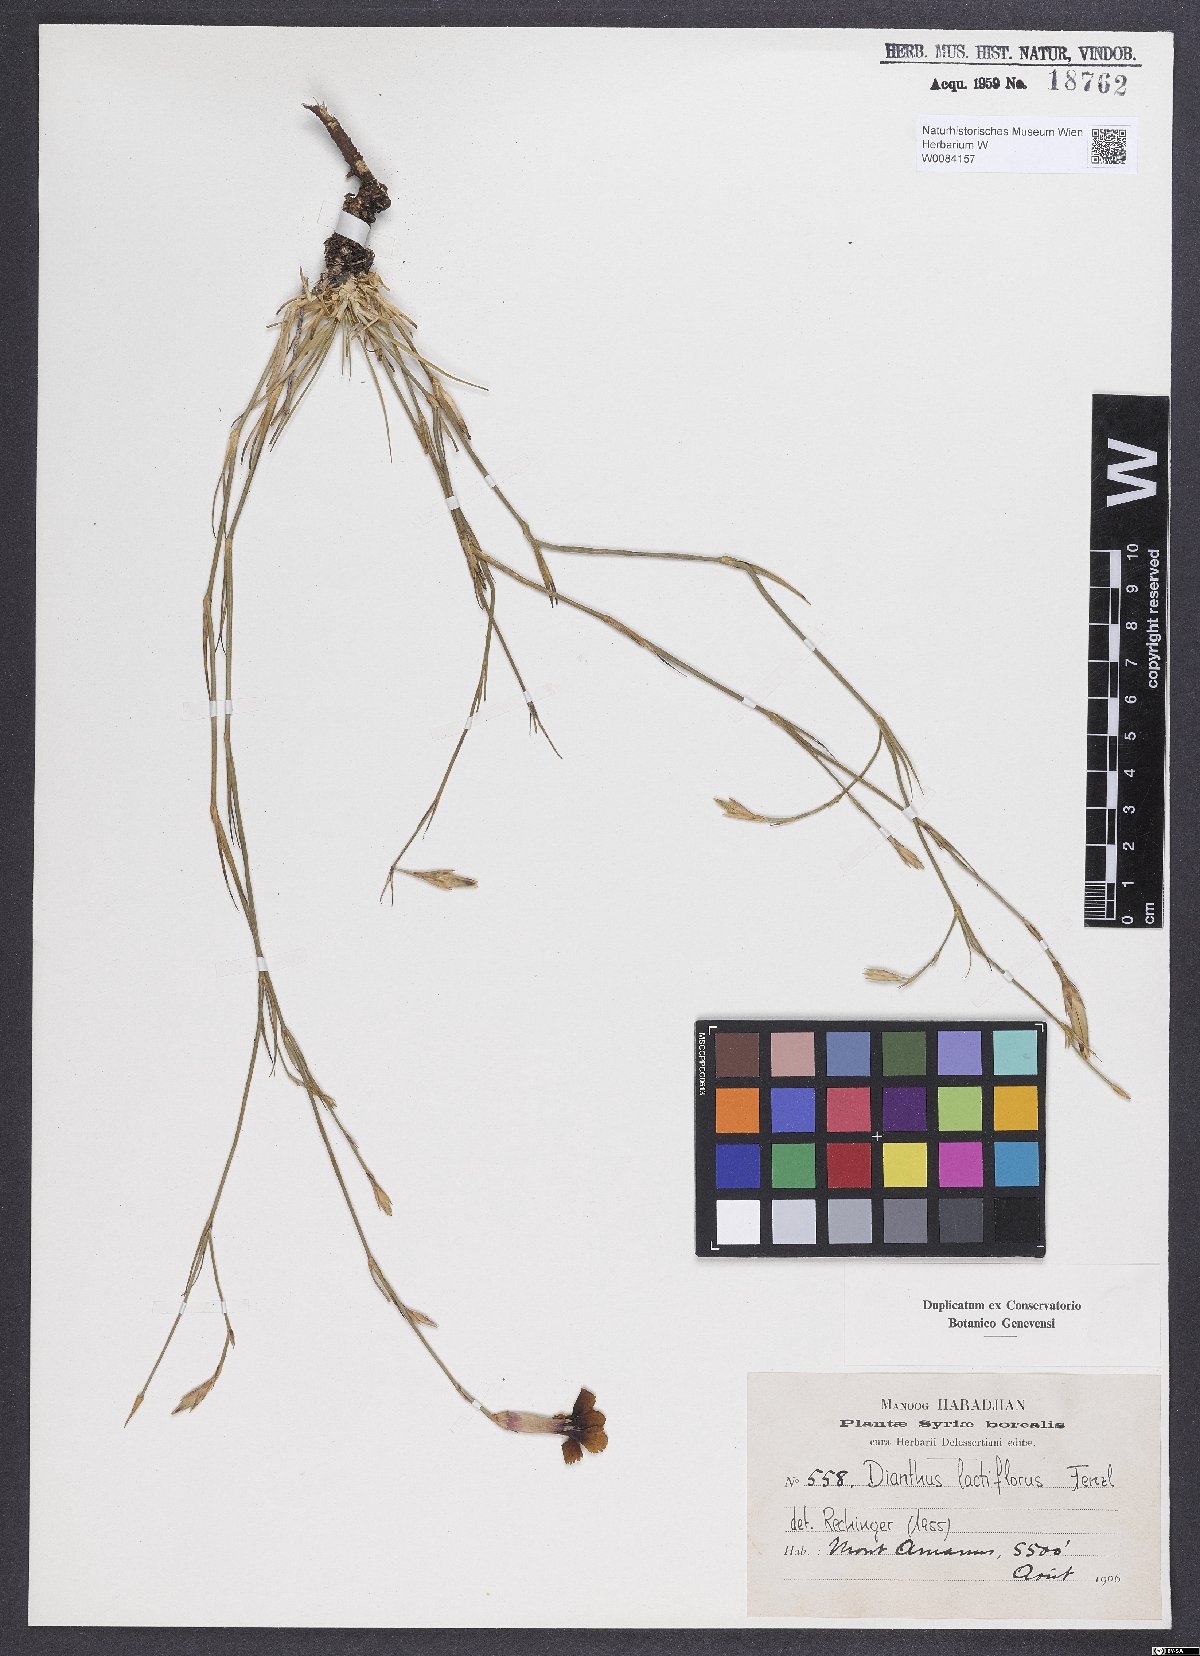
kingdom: Plantae
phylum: Tracheophyta
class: Magnoliopsida
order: Caryophyllales
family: Caryophyllaceae
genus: Dianthus
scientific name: Dianthus lactiflorus
